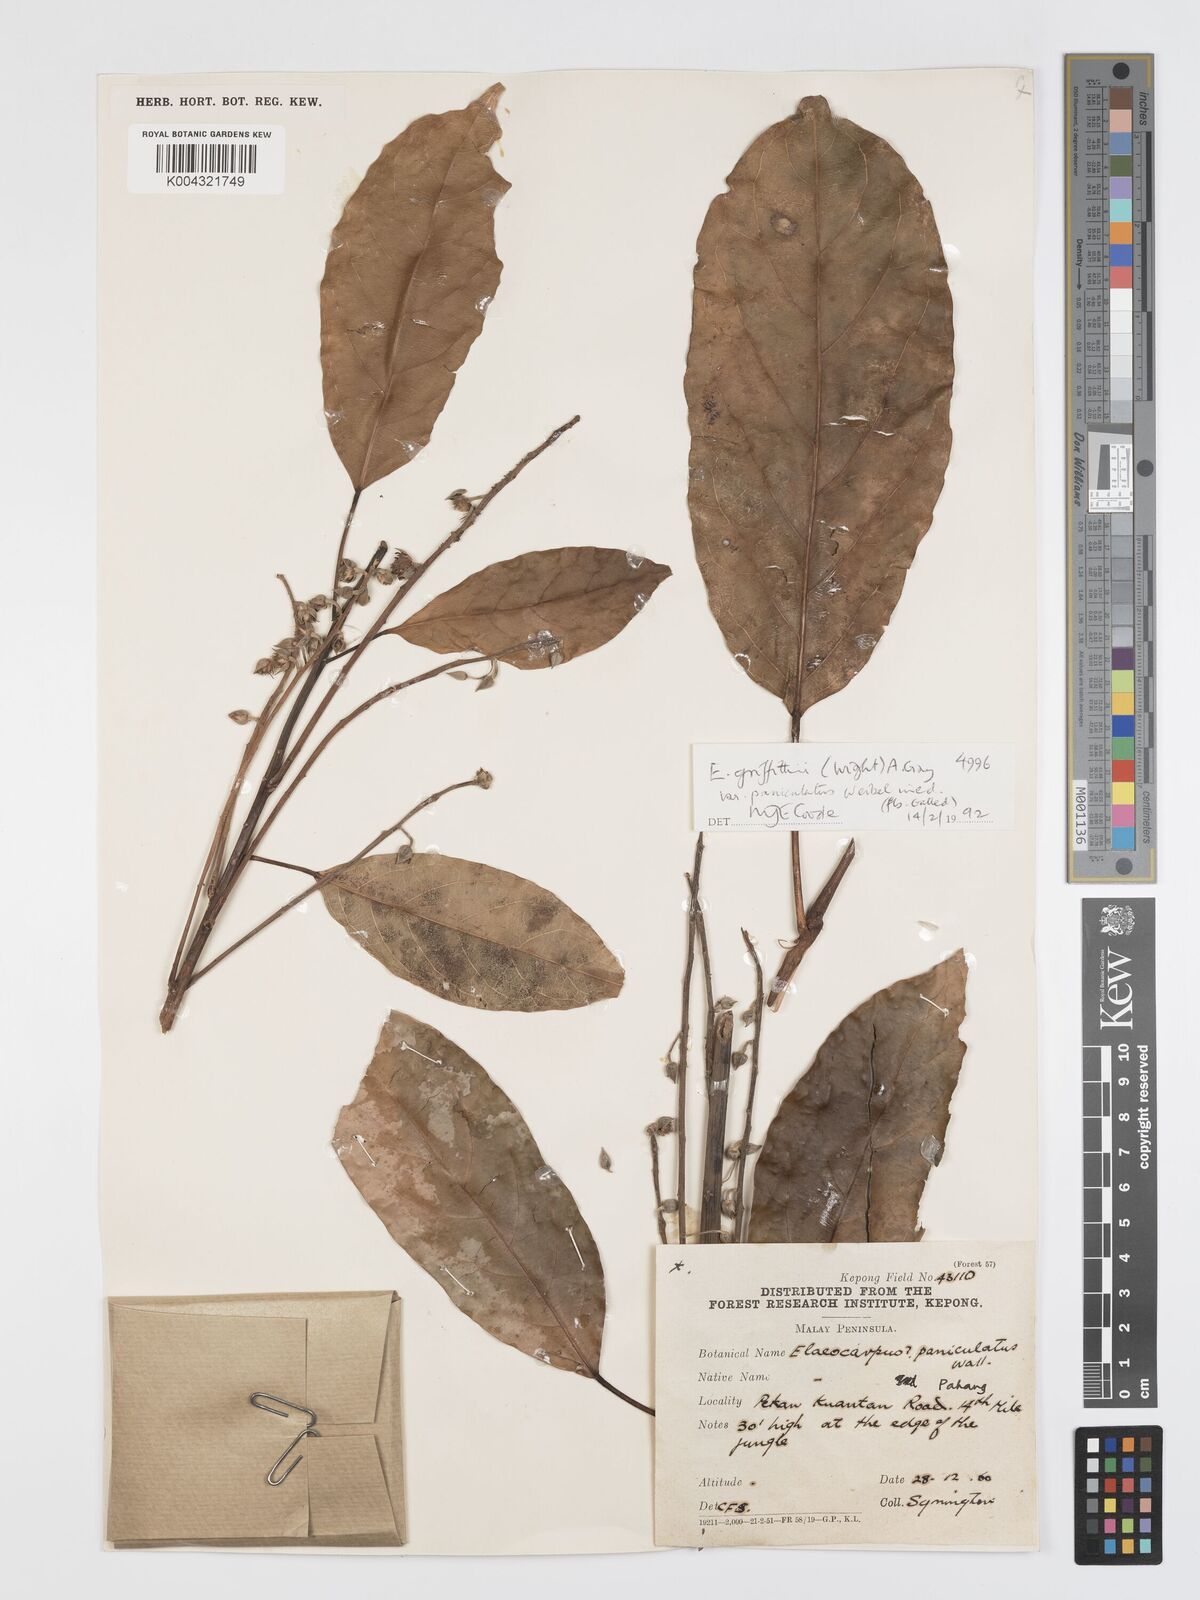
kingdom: Plantae
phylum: Tracheophyta
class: Magnoliopsida
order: Oxalidales
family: Elaeocarpaceae
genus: Elaeocarpus
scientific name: Elaeocarpus griffithii
